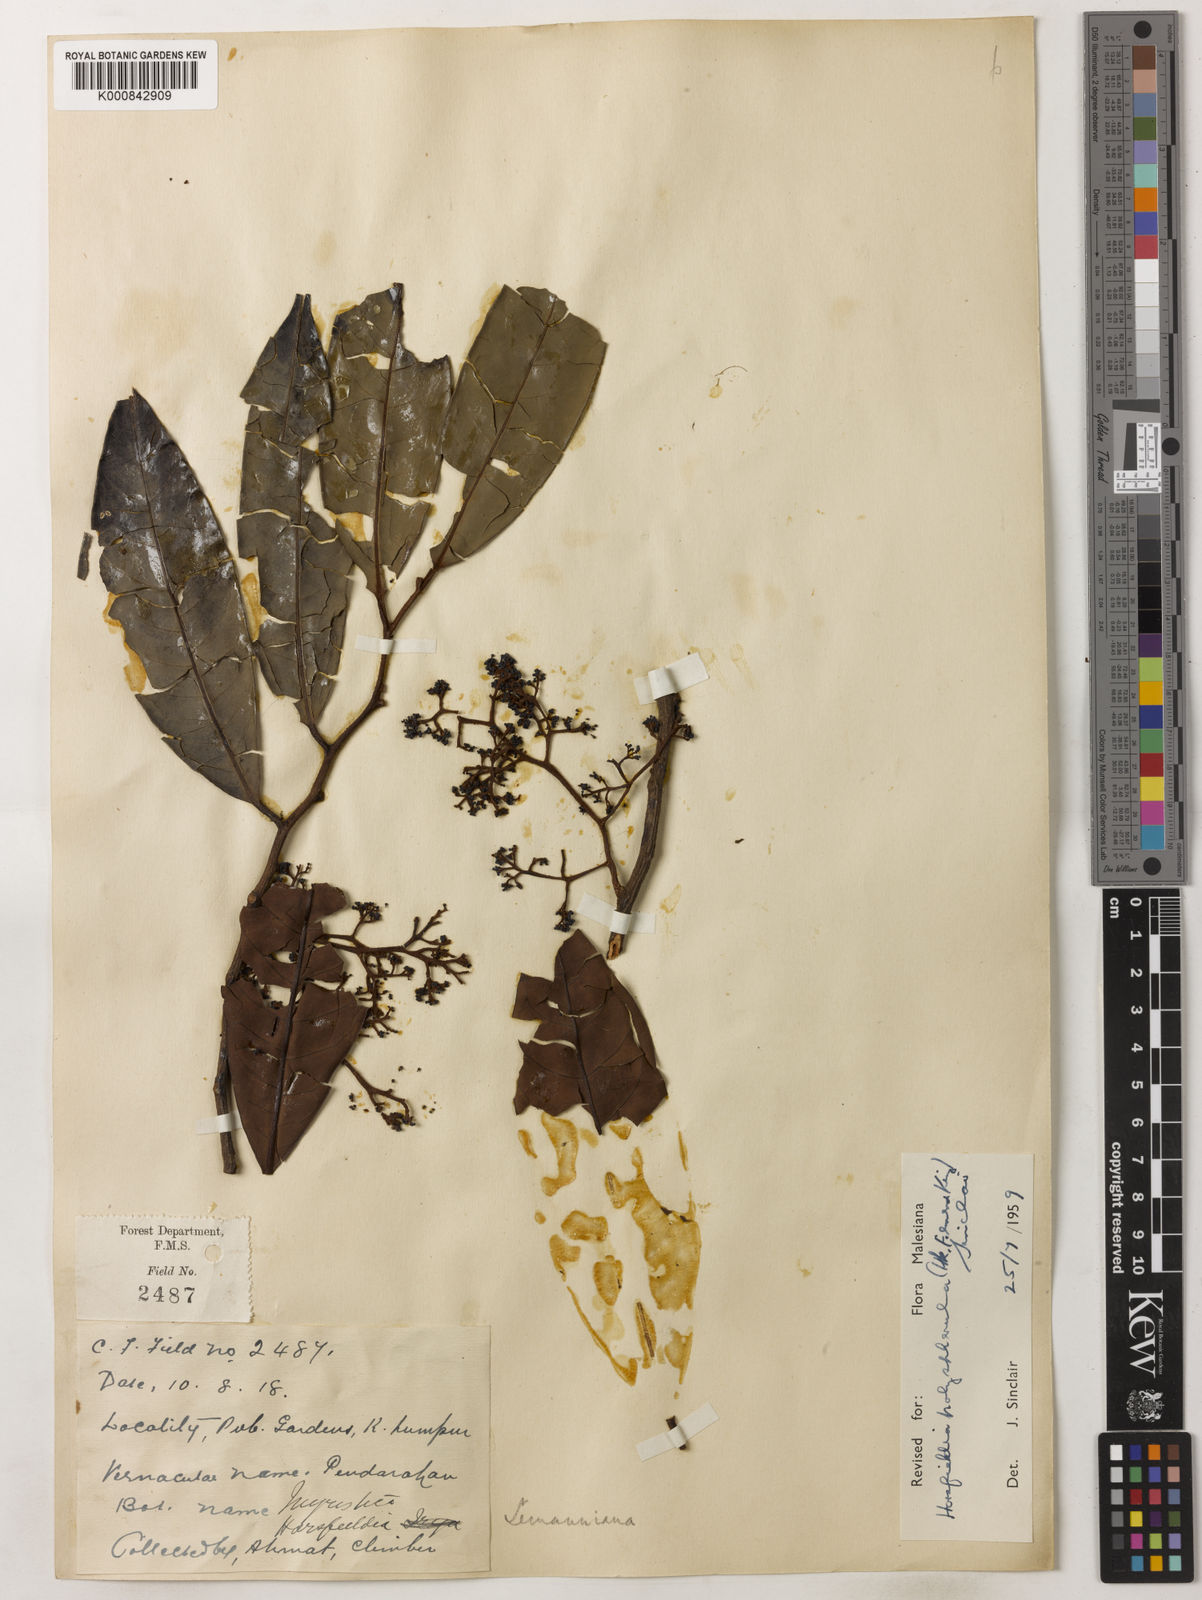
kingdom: Plantae
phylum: Tracheophyta
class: Magnoliopsida
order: Magnoliales
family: Myristicaceae
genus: Horsfieldia
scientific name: Horsfieldia
